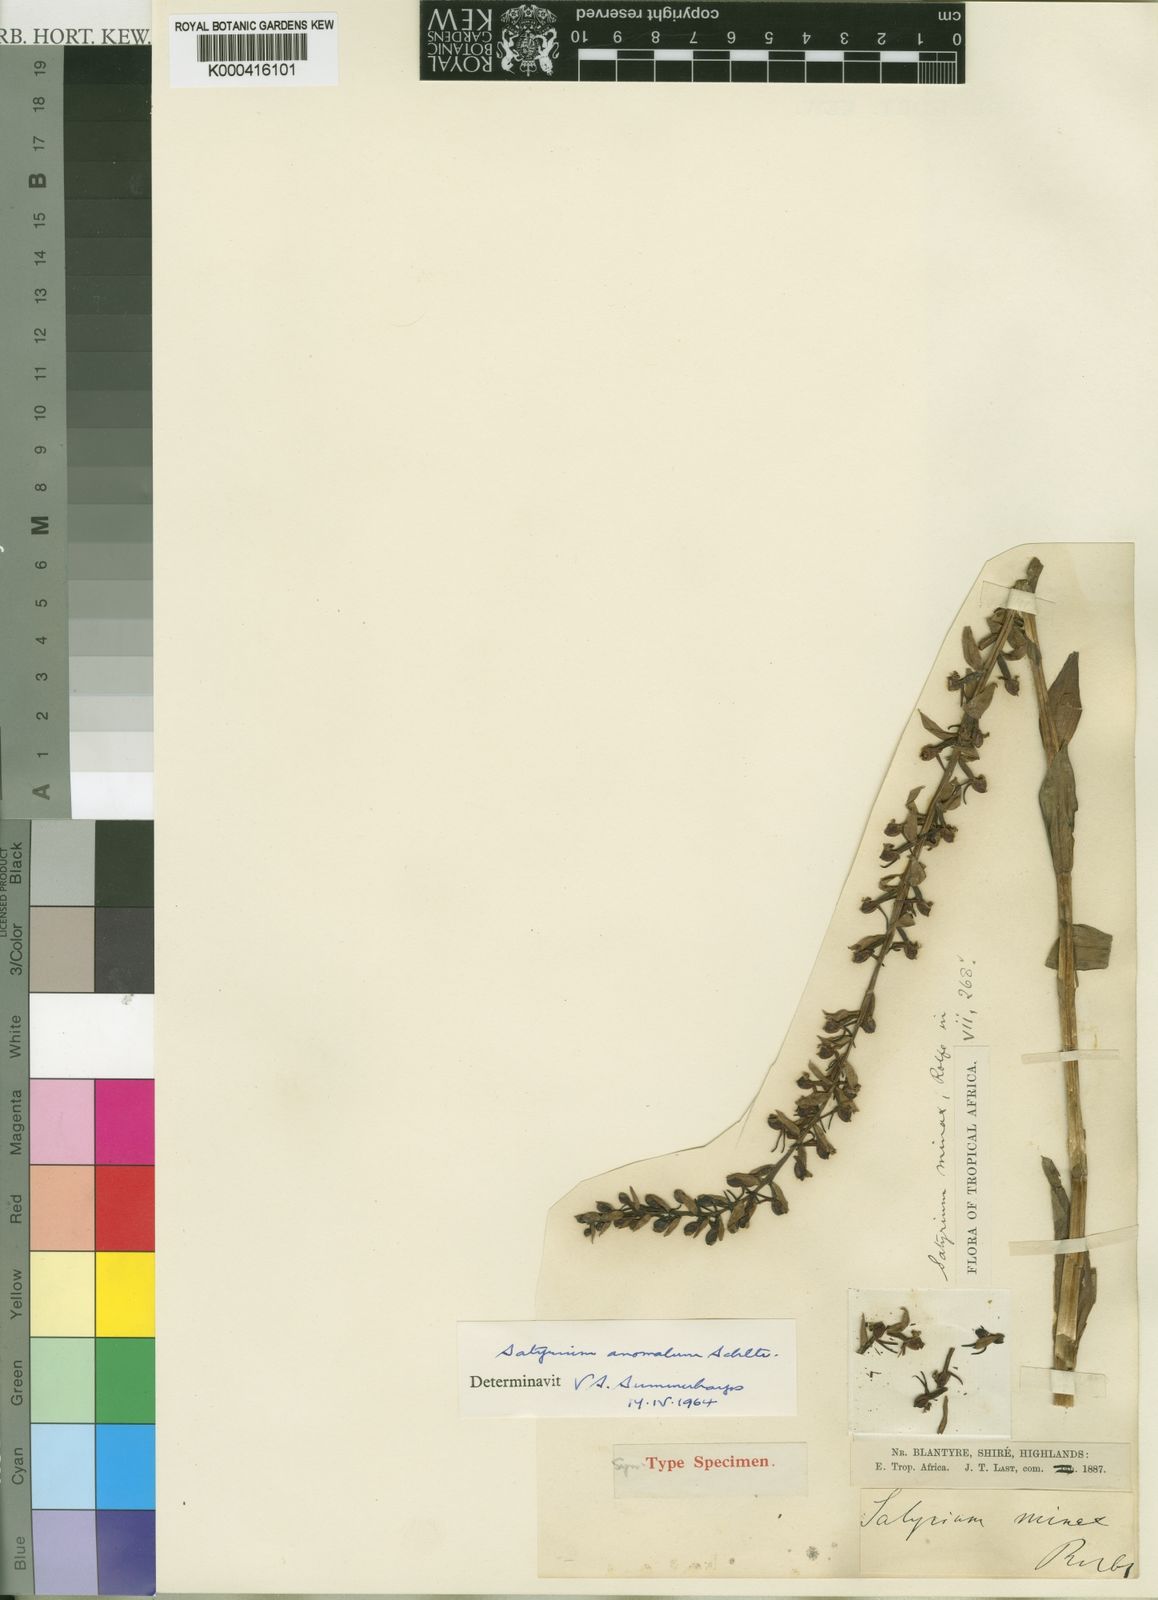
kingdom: Plantae
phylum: Tracheophyta
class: Liliopsida
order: Asparagales
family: Orchidaceae
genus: Satyrium
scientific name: Satyrium anomalum
